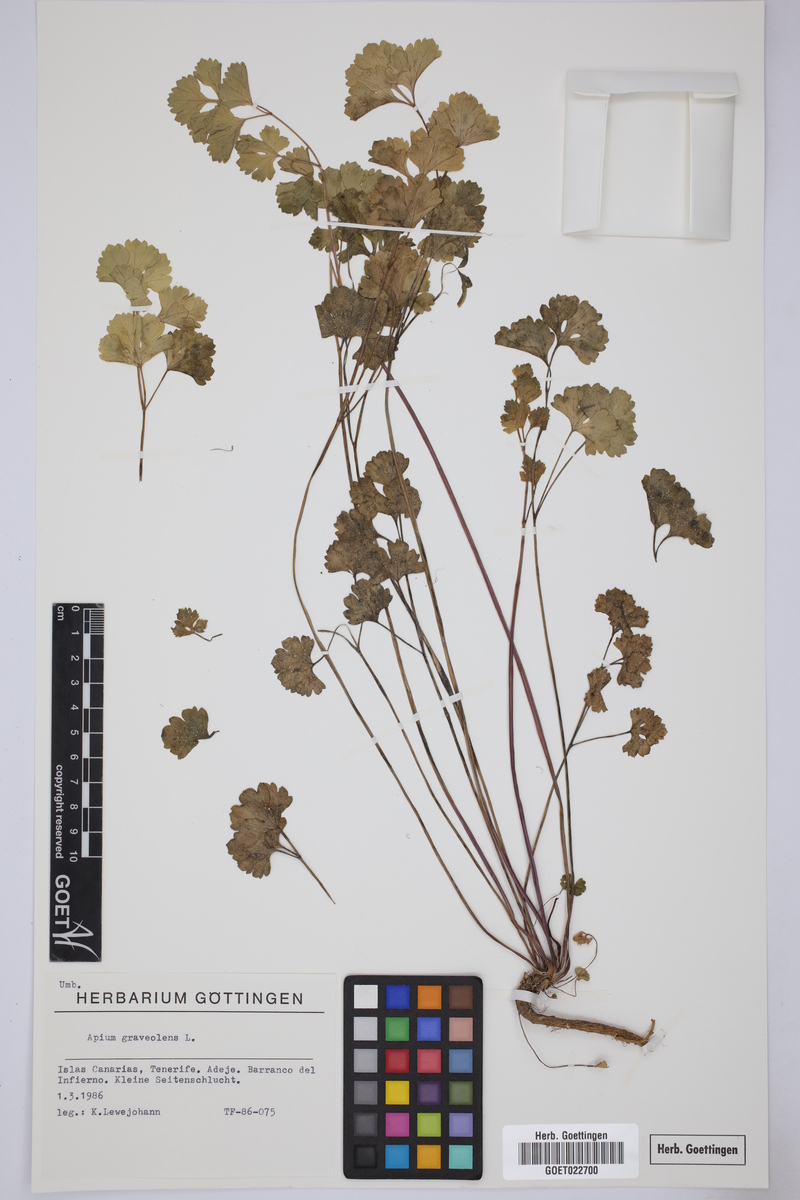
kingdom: Plantae
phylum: Tracheophyta
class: Magnoliopsida
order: Apiales
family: Apiaceae
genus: Apium
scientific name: Apium graveolens
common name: Wild celery
